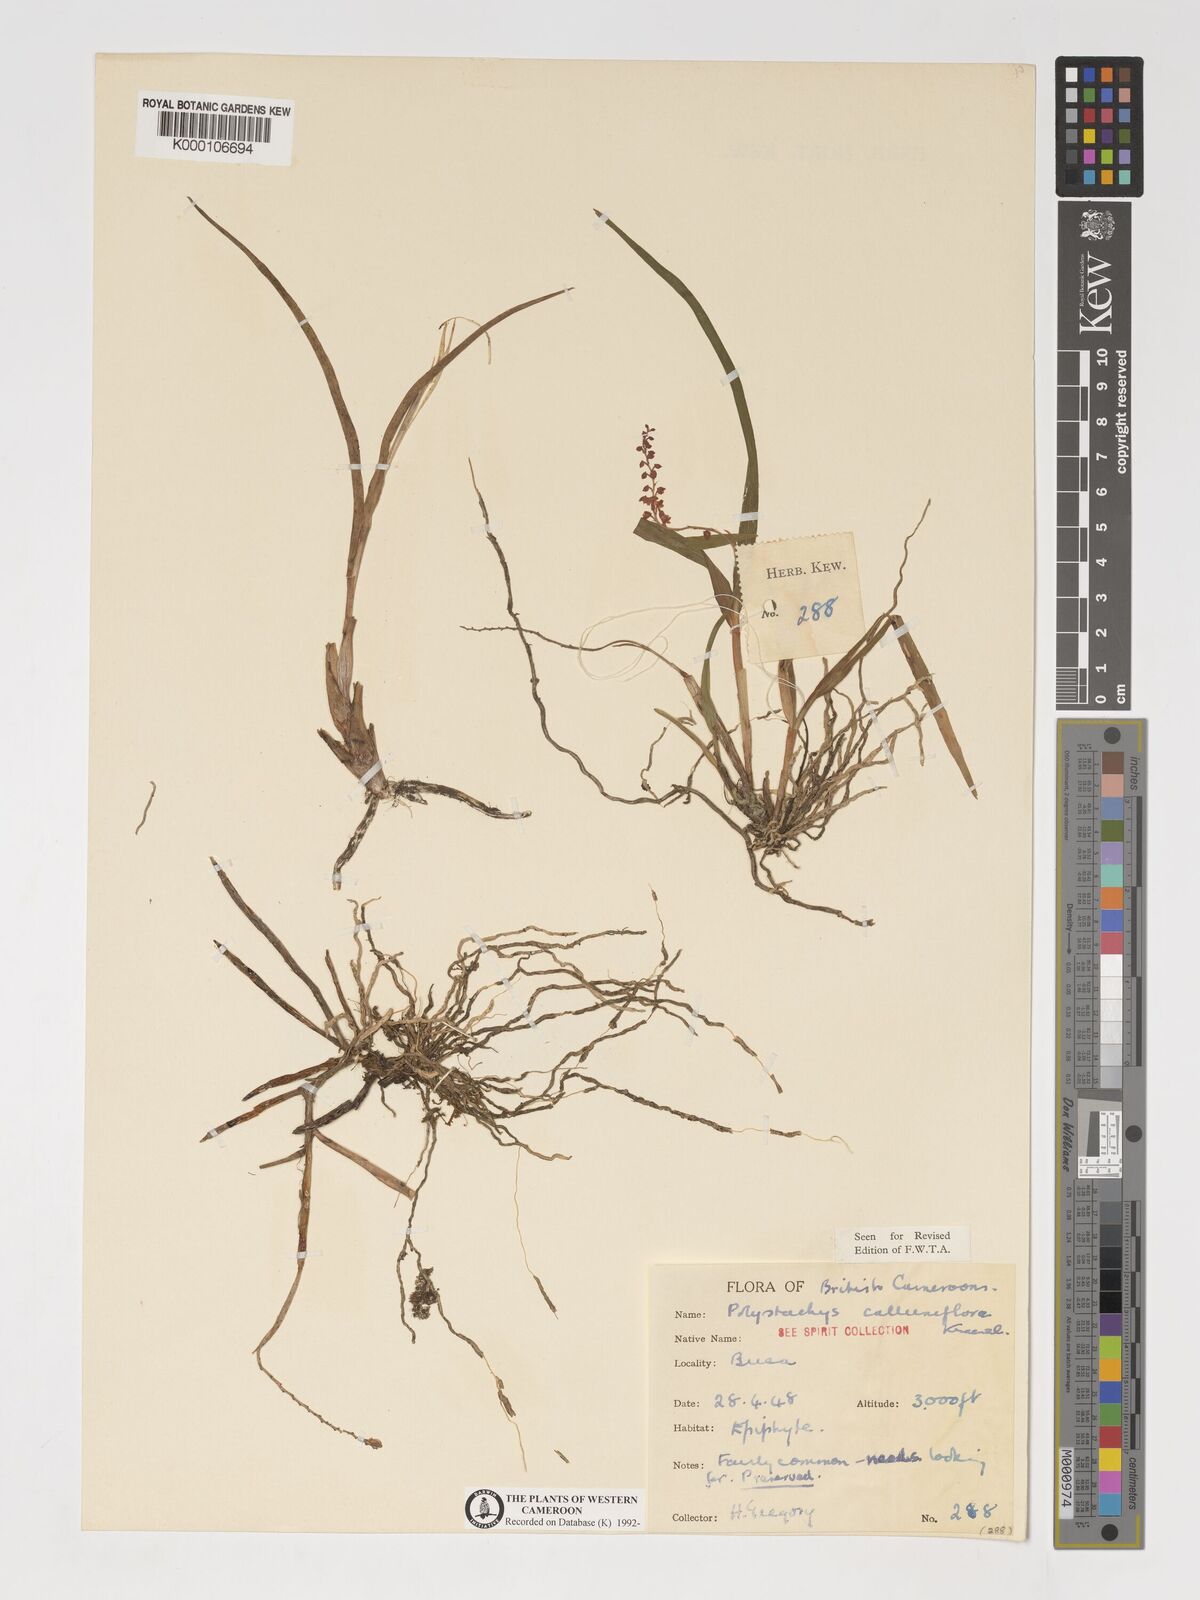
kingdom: Plantae
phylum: Tracheophyta
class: Liliopsida
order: Asparagales
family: Orchidaceae
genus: Polystachya
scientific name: Polystachya calluniflora
